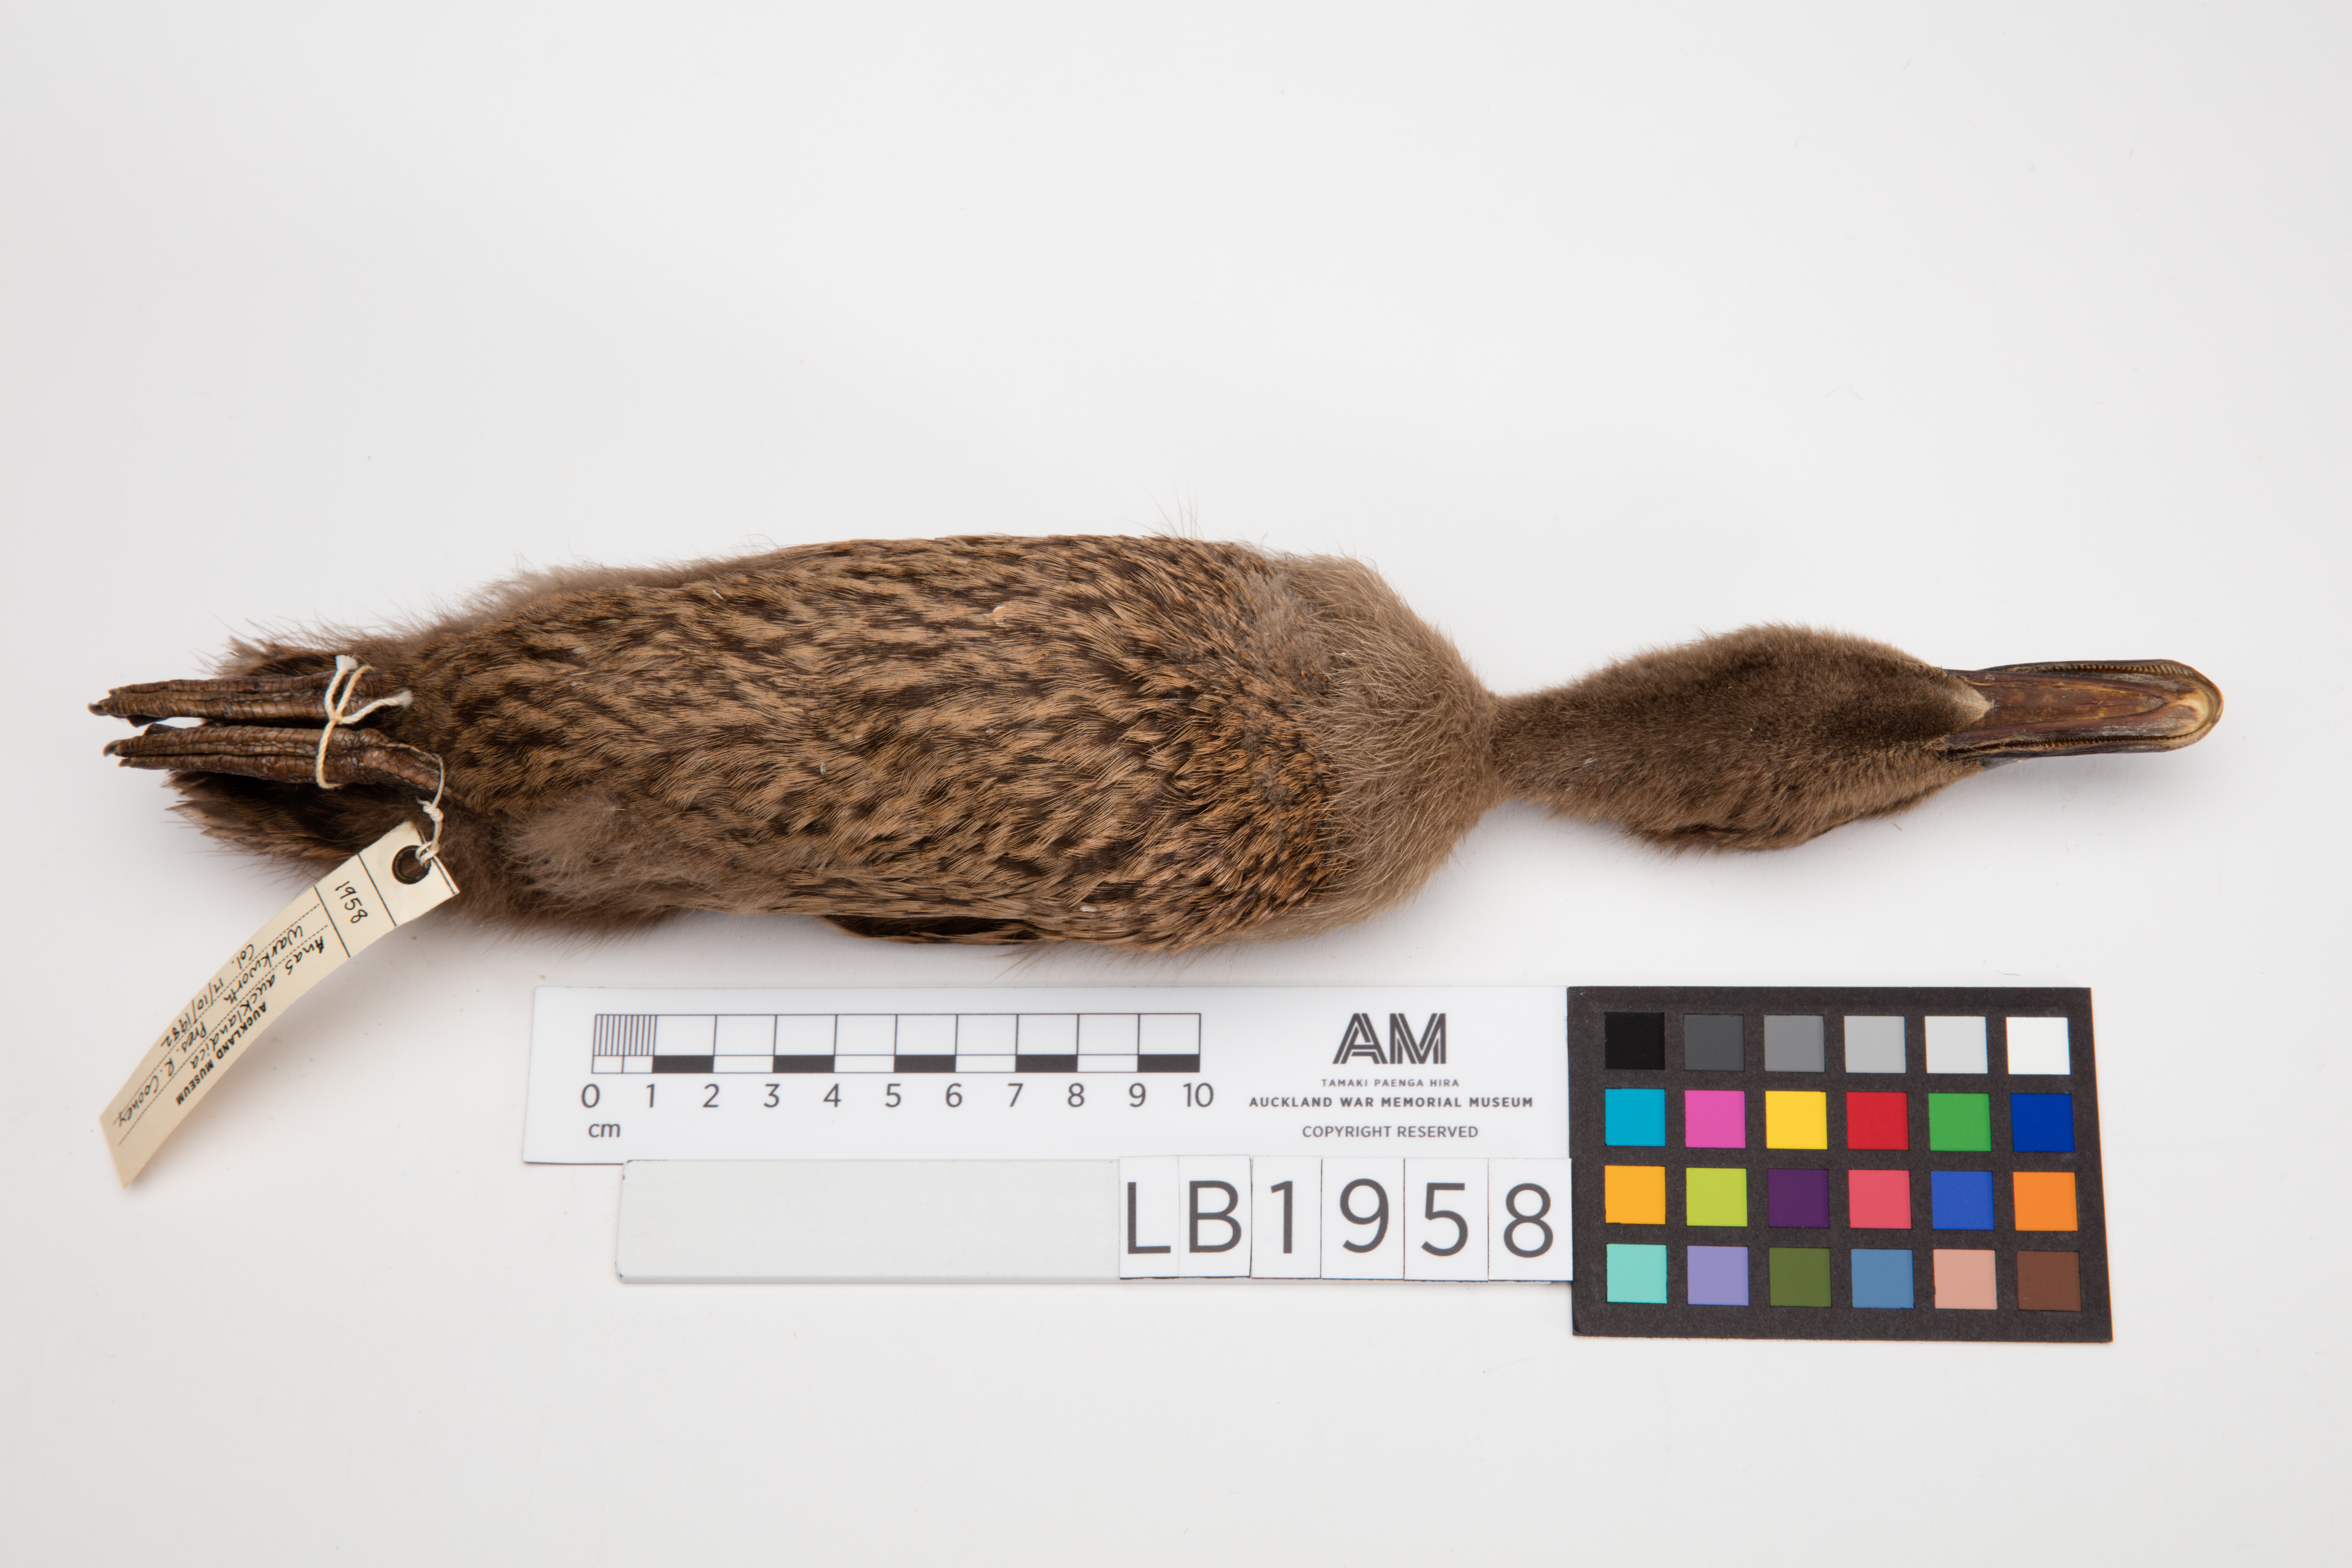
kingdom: Animalia
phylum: Chordata
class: Aves
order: Anseriformes
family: Anatidae
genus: Anas
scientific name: Anas chlorotis
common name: Brown teal
